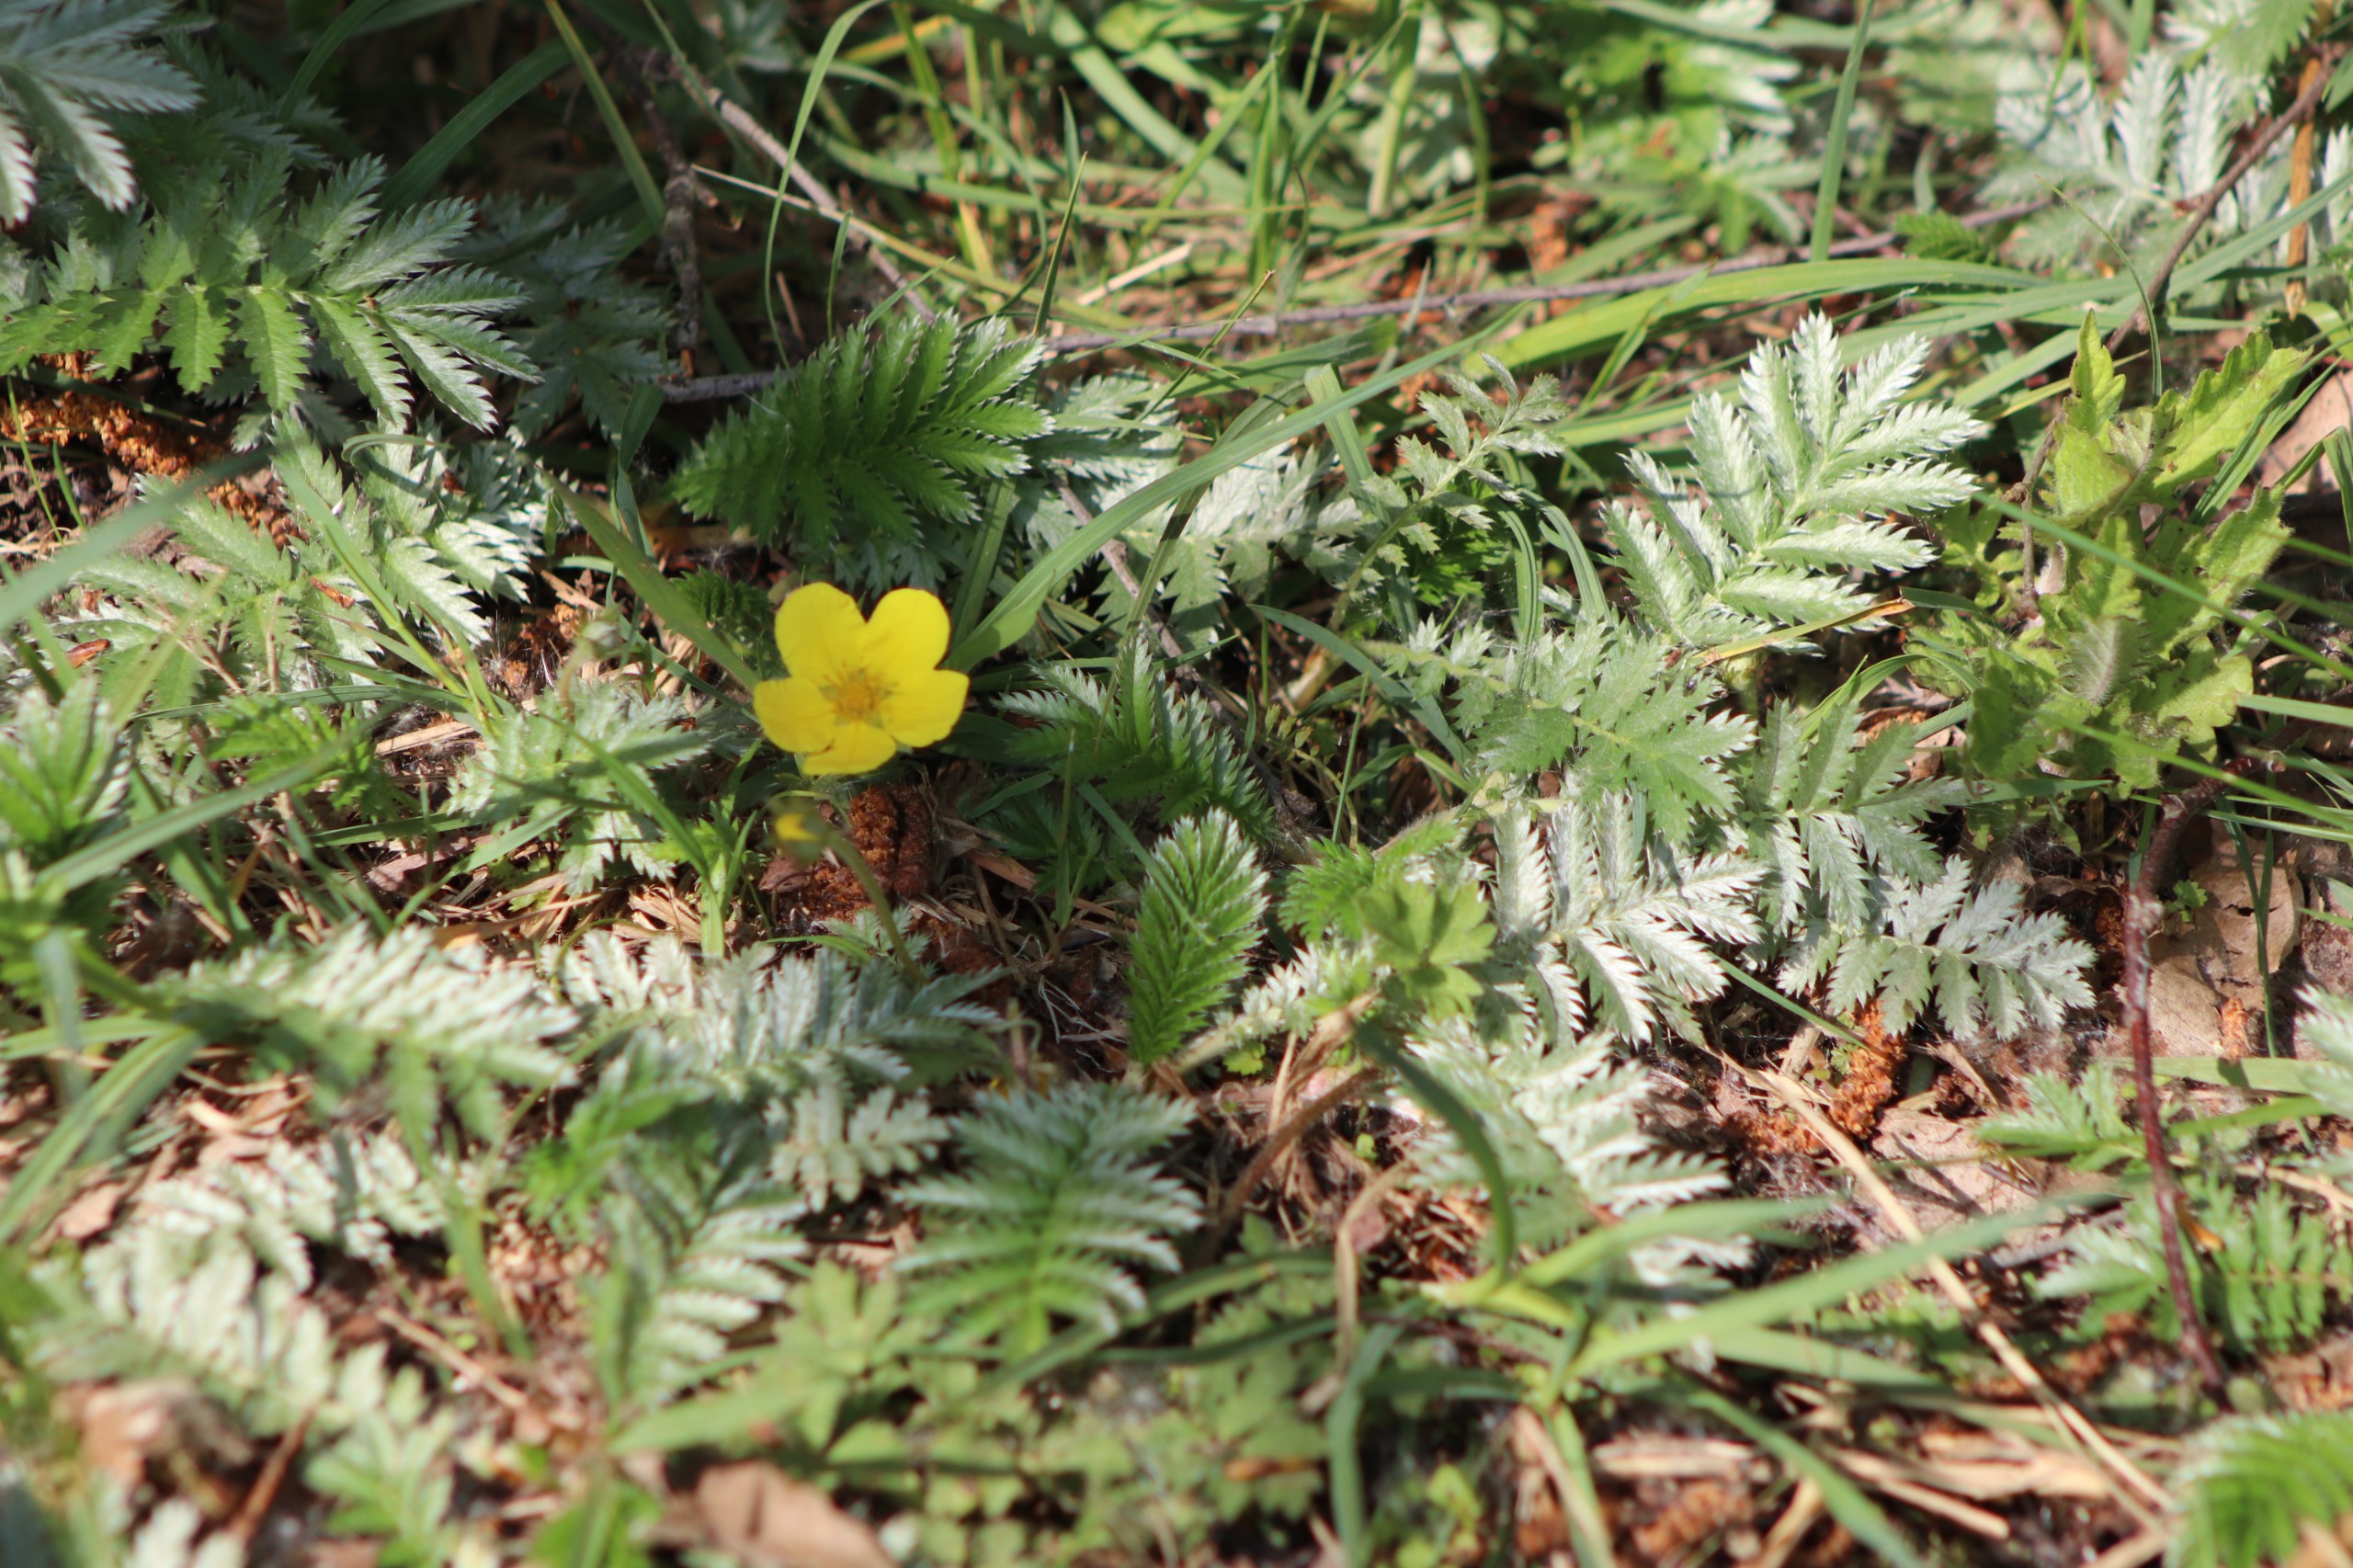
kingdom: Plantae
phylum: Tracheophyta
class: Magnoliopsida
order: Rosales
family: Rosaceae
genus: Argentina
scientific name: Argentina anserina
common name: Gåsepotentil
